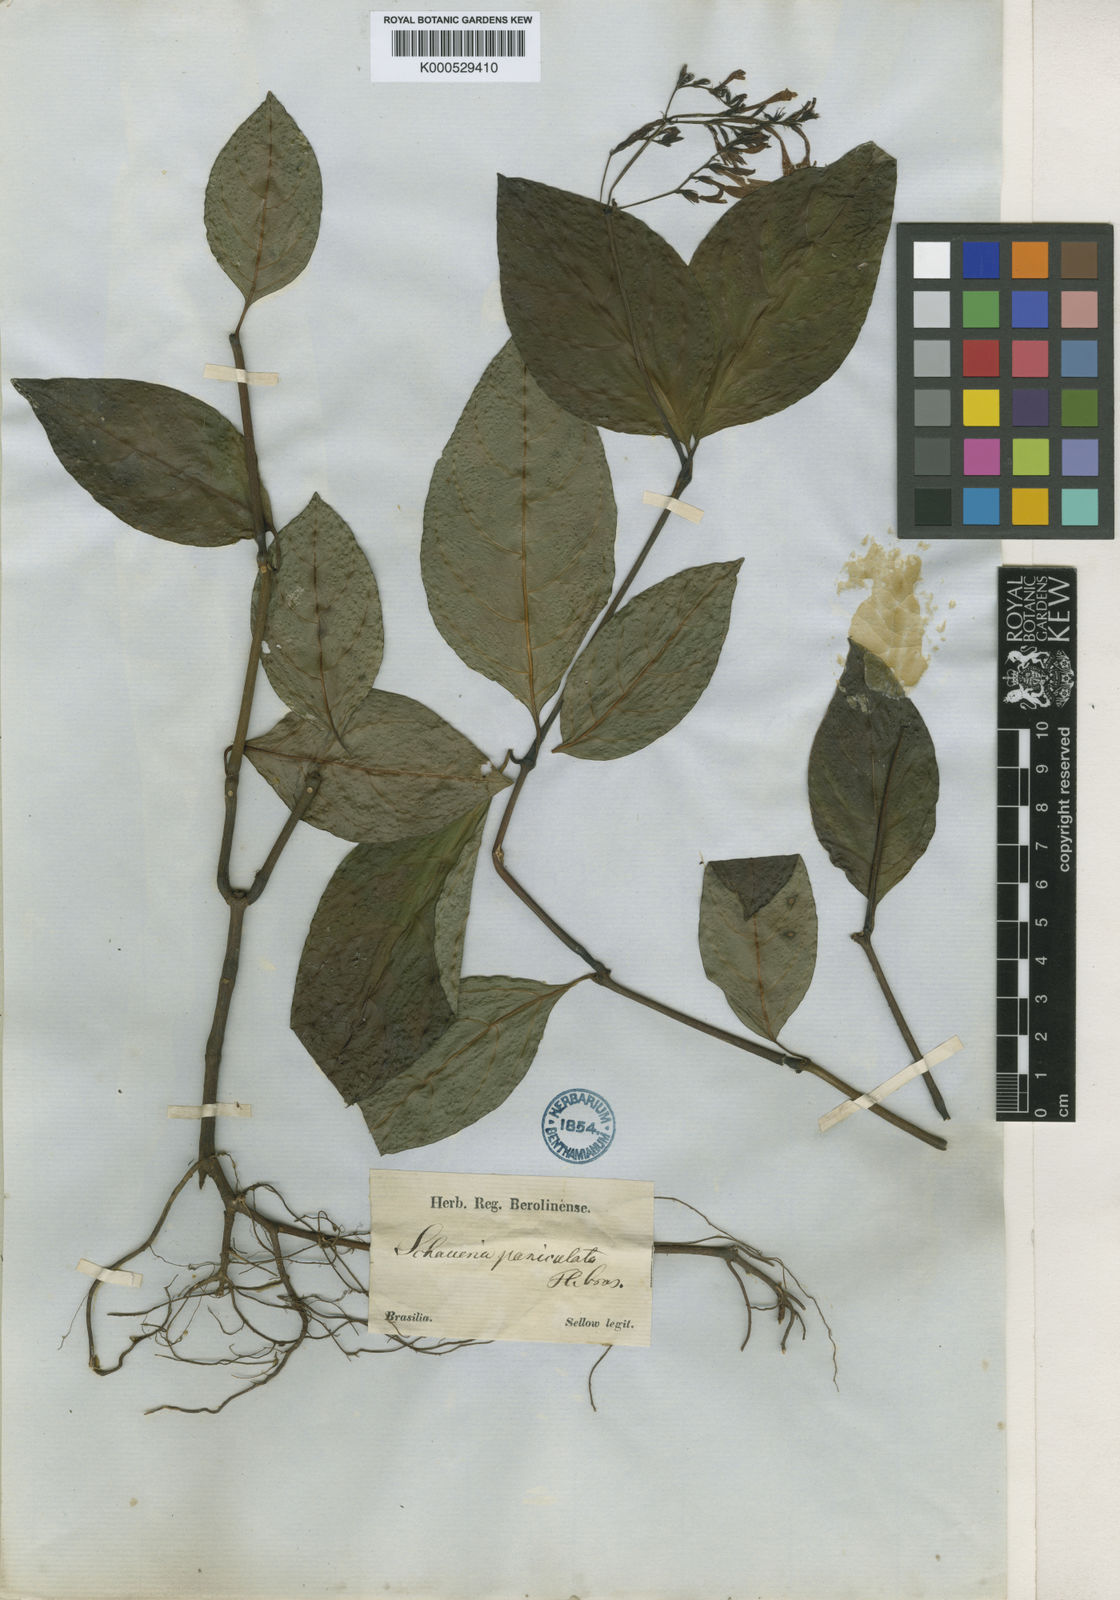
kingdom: Plantae
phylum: Tracheophyta
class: Magnoliopsida
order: Lamiales
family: Acanthaceae
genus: Pseuderanthemum
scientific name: Pseuderanthemum riedelianum
